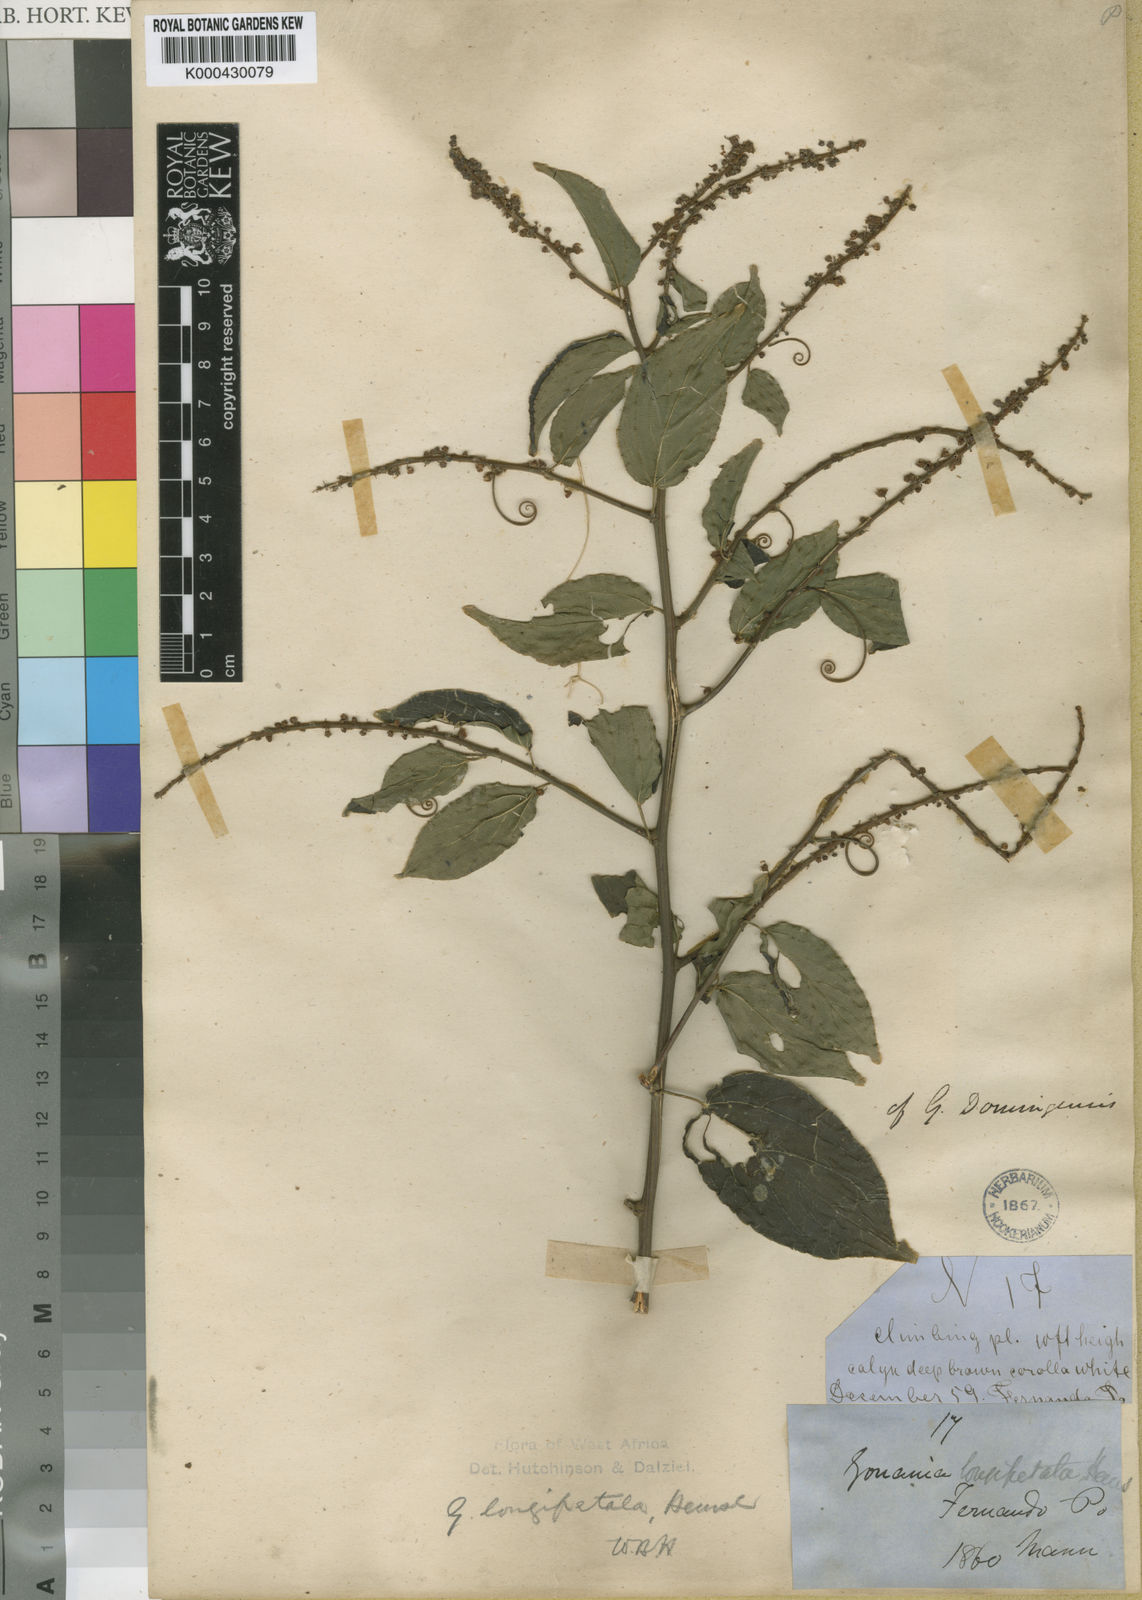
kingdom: Plantae
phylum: Tracheophyta
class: Magnoliopsida
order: Rosales
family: Rhamnaceae
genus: Gouania
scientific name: Gouania longipetala
